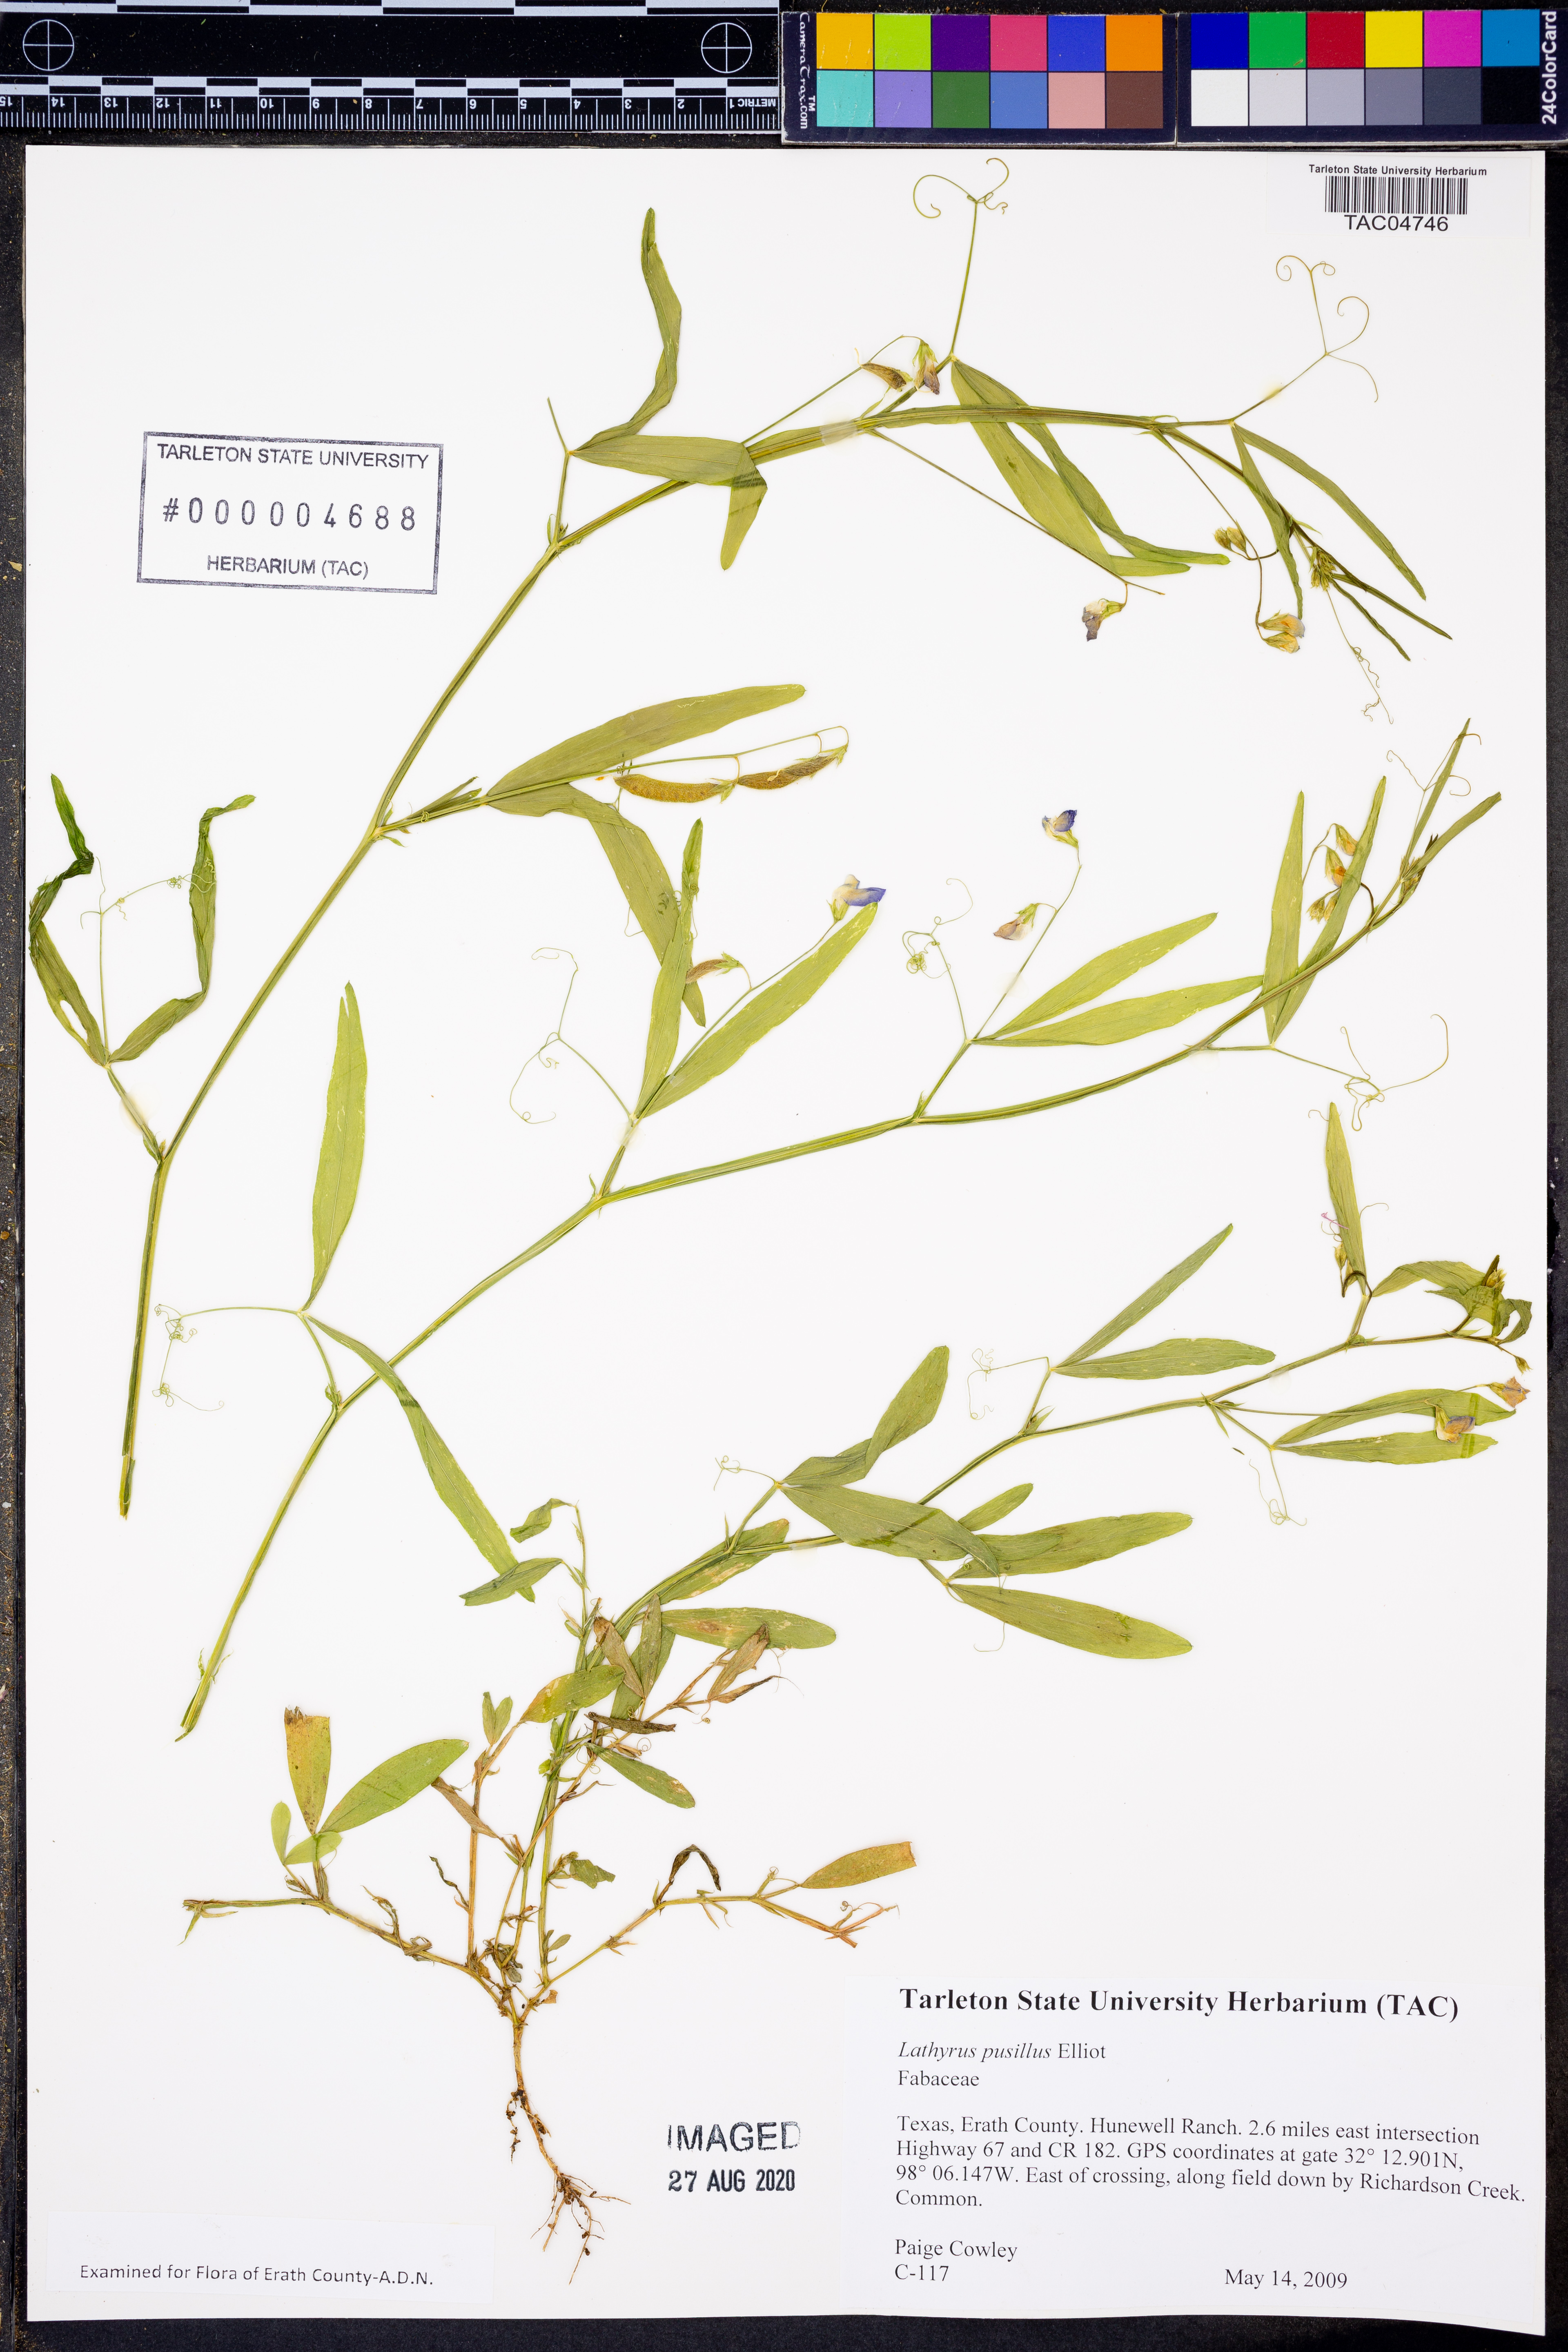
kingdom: Plantae
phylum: Tracheophyta
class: Magnoliopsida
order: Fabales
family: Fabaceae
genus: Lathyrus
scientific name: Lathyrus pusillus
